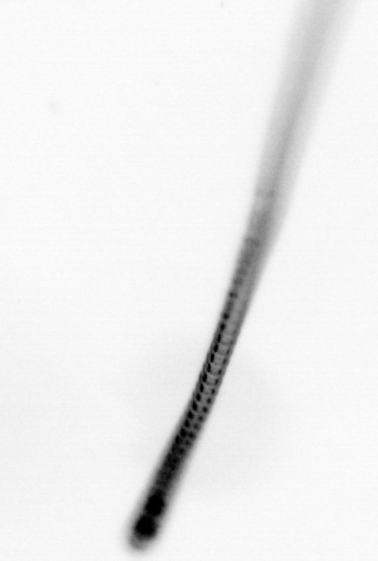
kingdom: Chromista
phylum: Ochrophyta
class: Bacillariophyceae
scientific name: Bacillariophyceae
